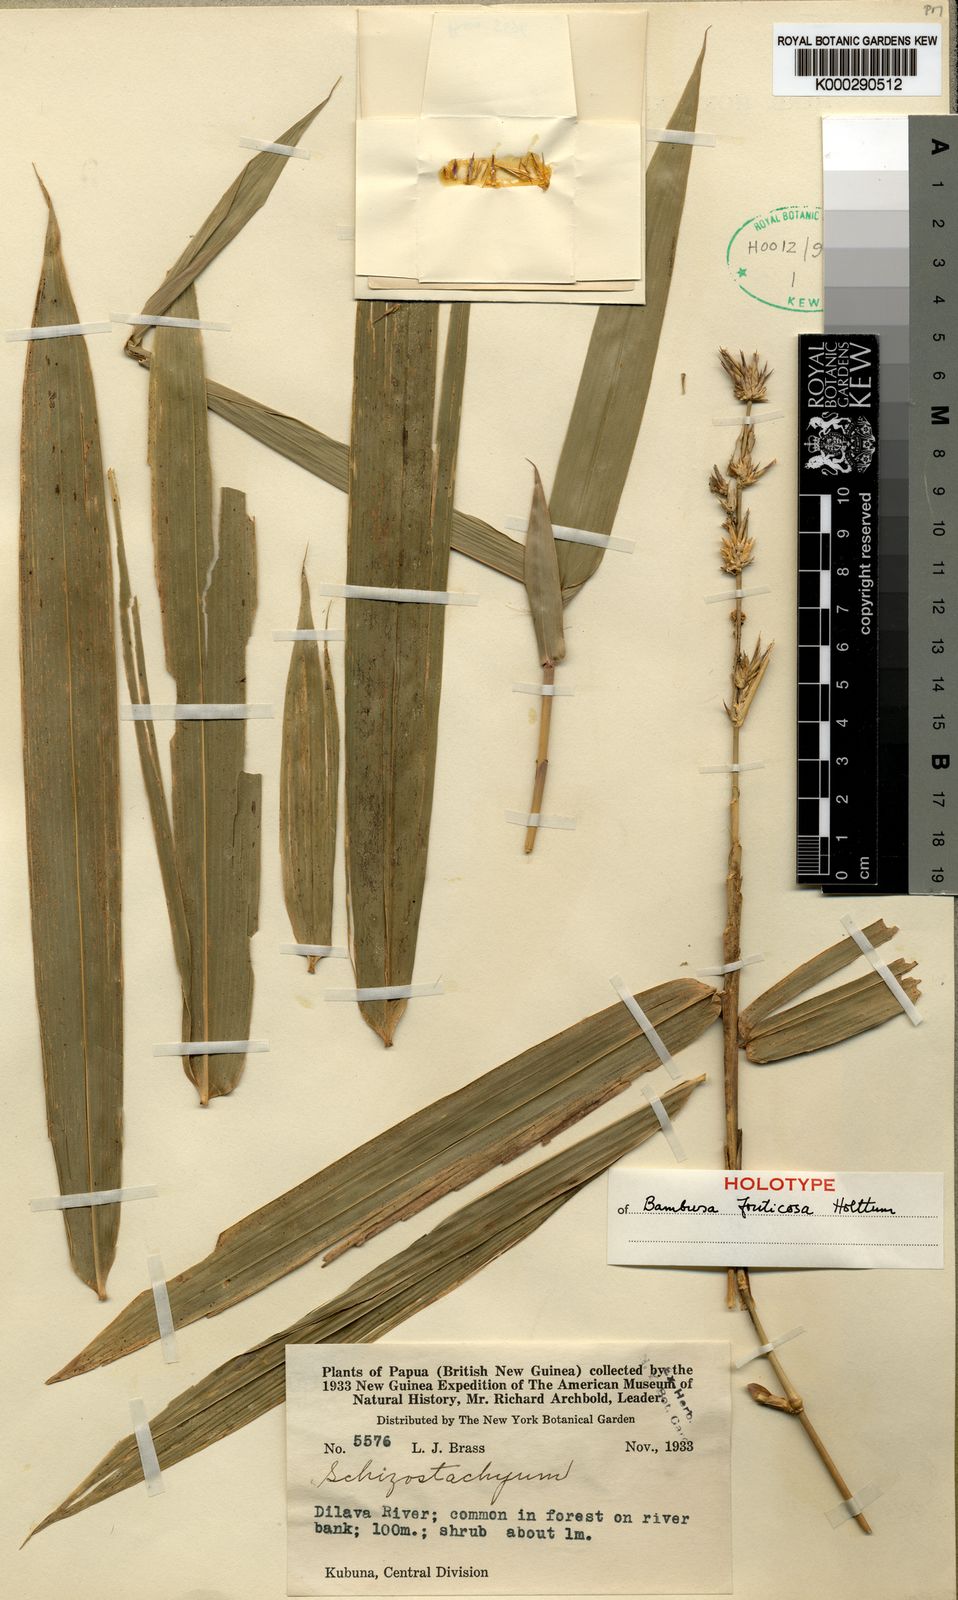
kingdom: Plantae
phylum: Tracheophyta
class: Liliopsida
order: Poales
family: Poaceae
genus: Bambusa
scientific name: Bambusa fruticosa
